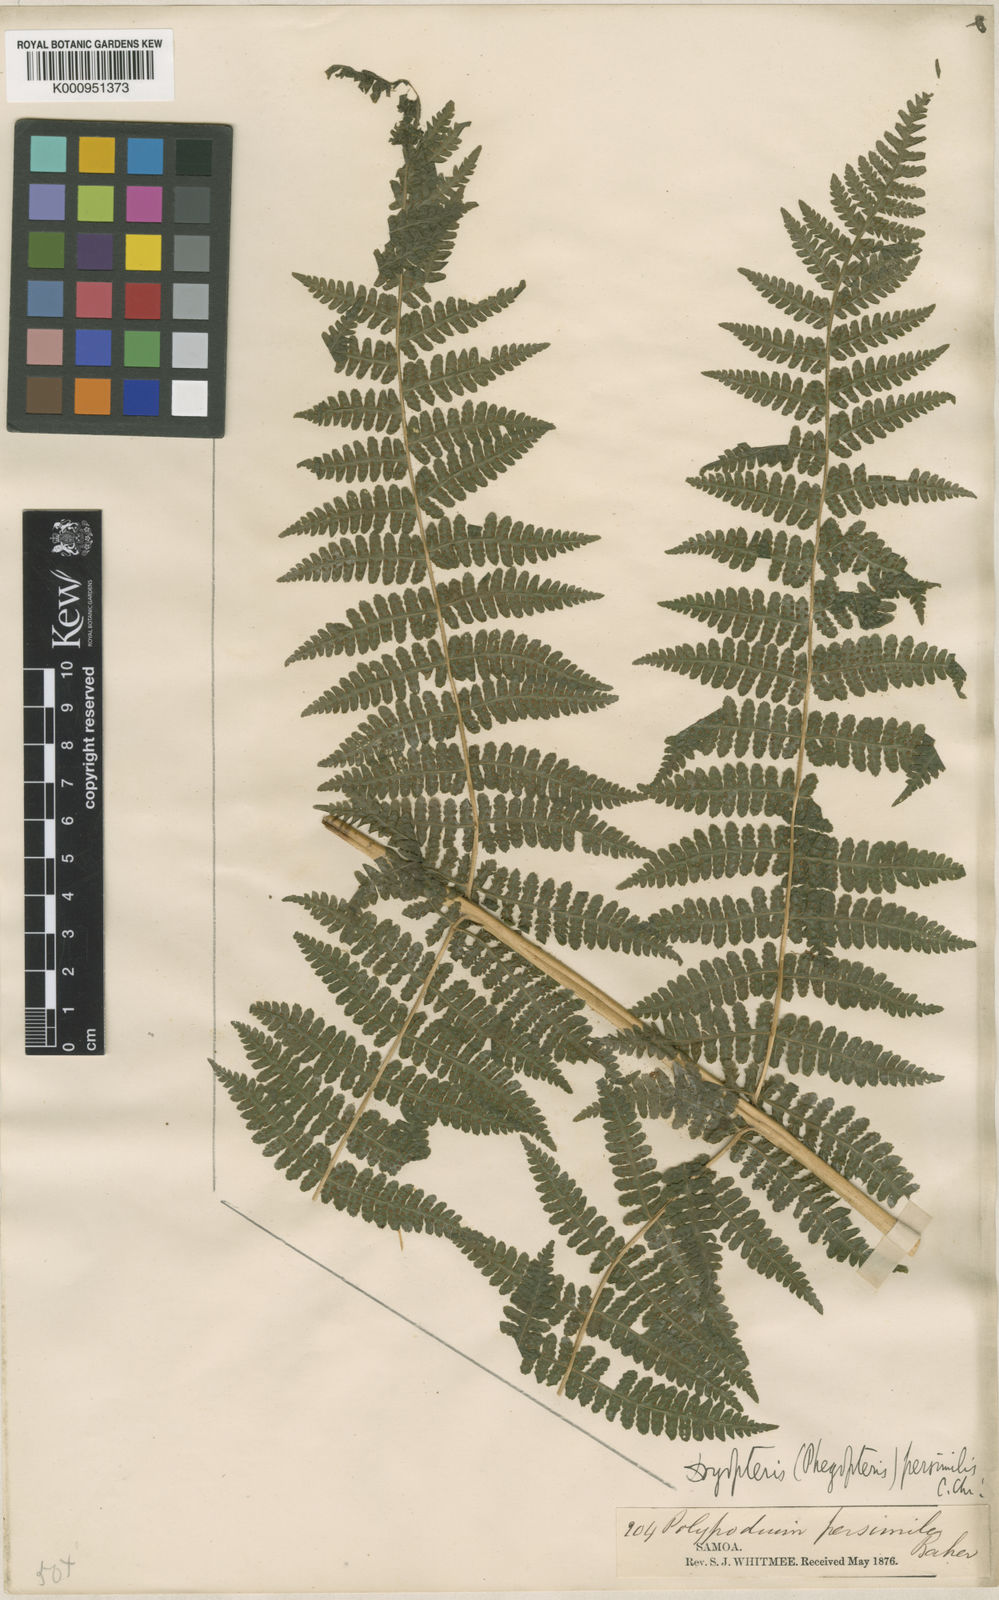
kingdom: Plantae
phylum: Tracheophyta
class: Polypodiopsida
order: Polypodiales
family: Thelypteridaceae
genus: Pseudophegopteris
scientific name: Pseudophegopteris persimilis
